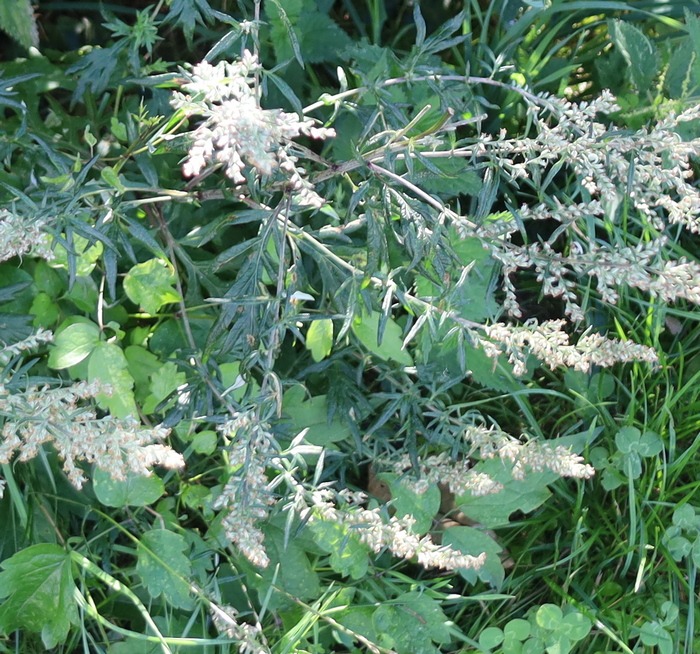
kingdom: Plantae
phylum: Tracheophyta
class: Magnoliopsida
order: Asterales
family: Asteraceae
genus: Artemisia
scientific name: Artemisia vulgaris
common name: Grå-bynke
